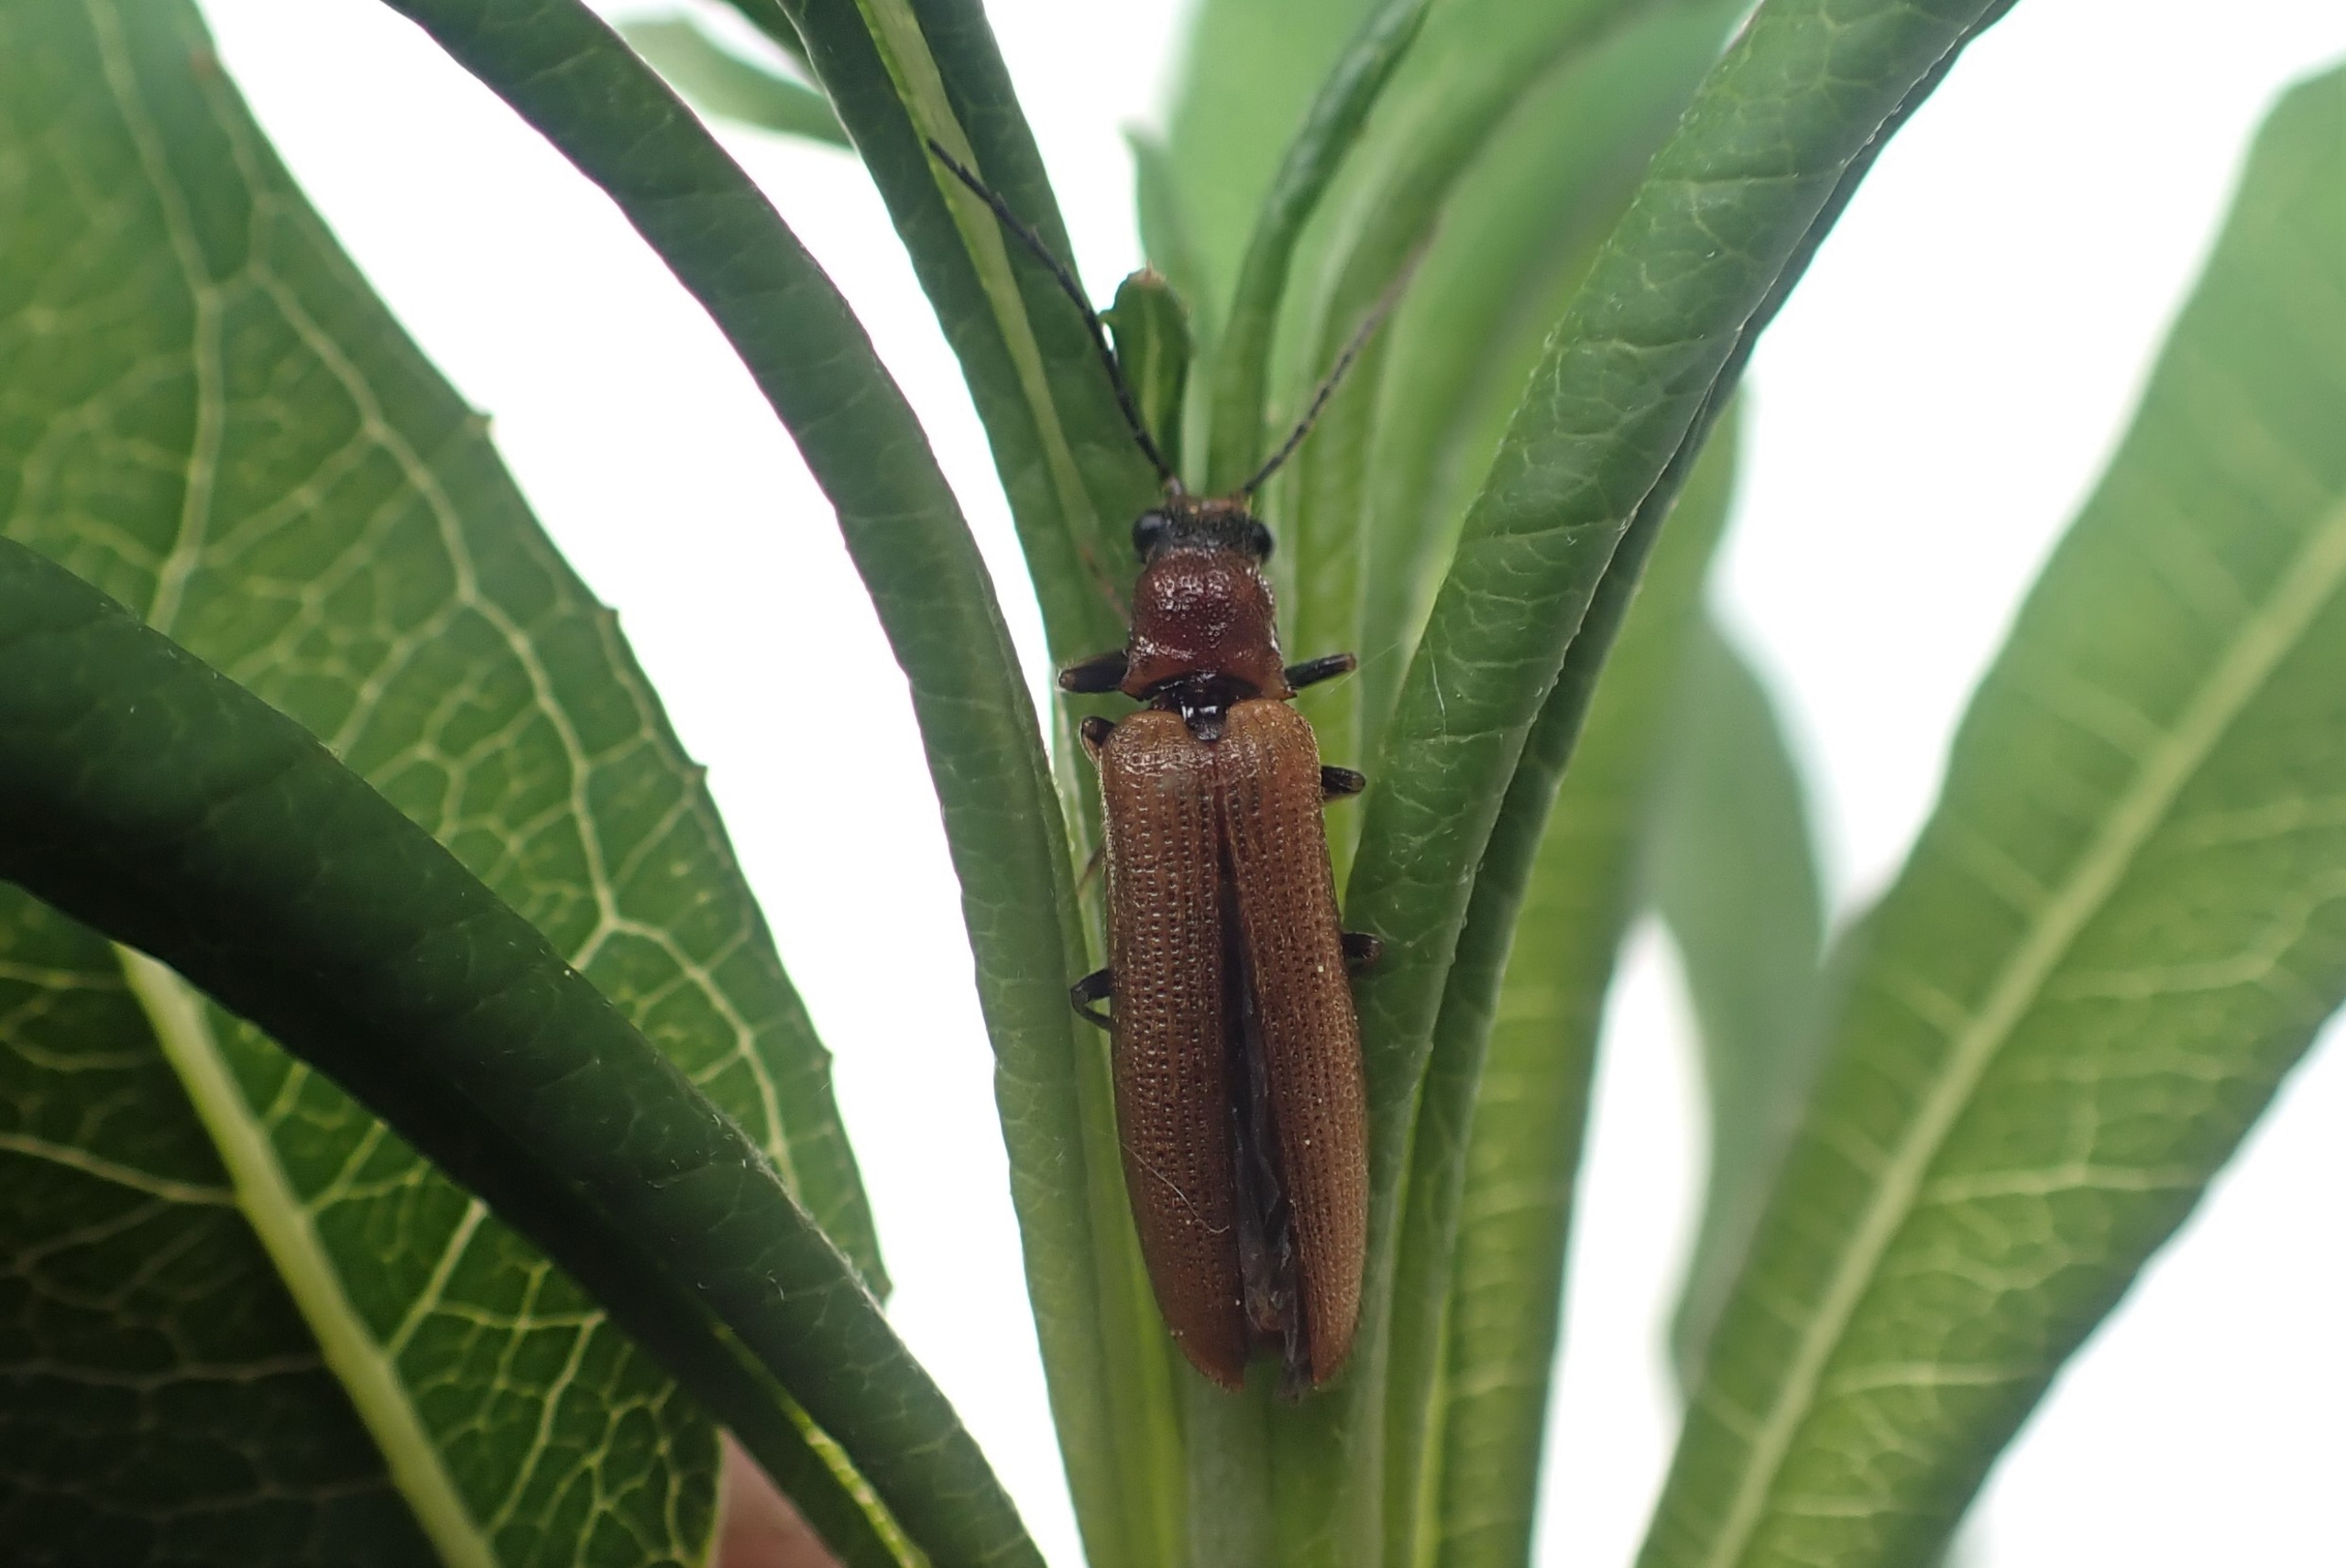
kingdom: Animalia
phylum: Arthropoda
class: Insecta
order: Coleoptera
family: Elateridae
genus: Denticollis
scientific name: Denticollis linearis
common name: Almindelig sirsmælder
